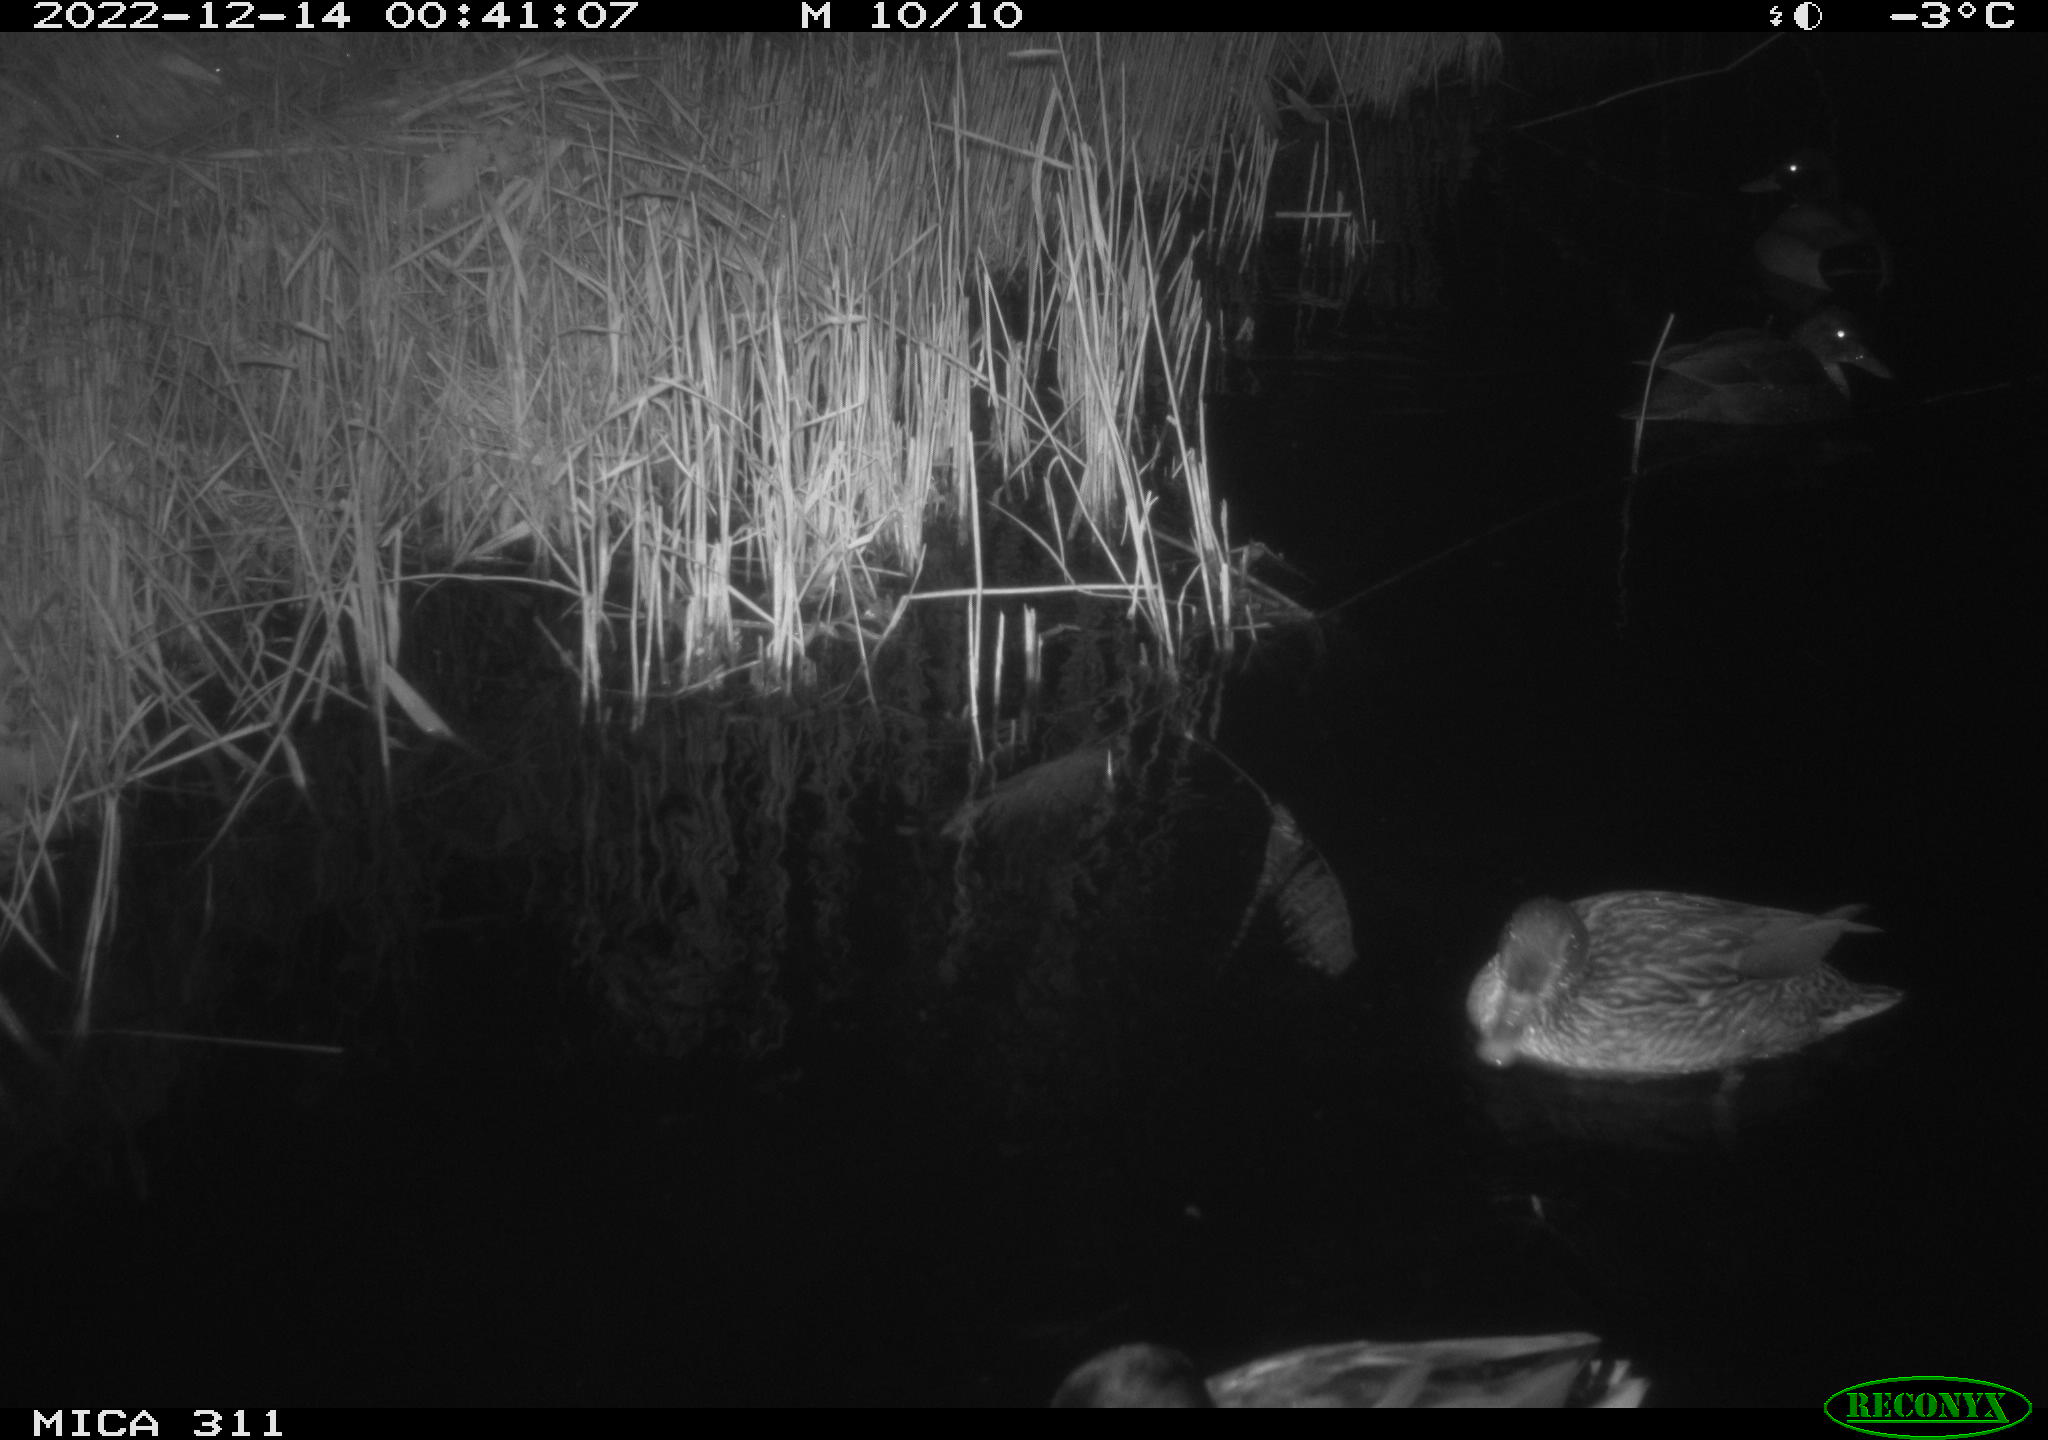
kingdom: Animalia
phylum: Chordata
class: Aves
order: Anseriformes
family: Anatidae
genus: Anas
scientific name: Anas
